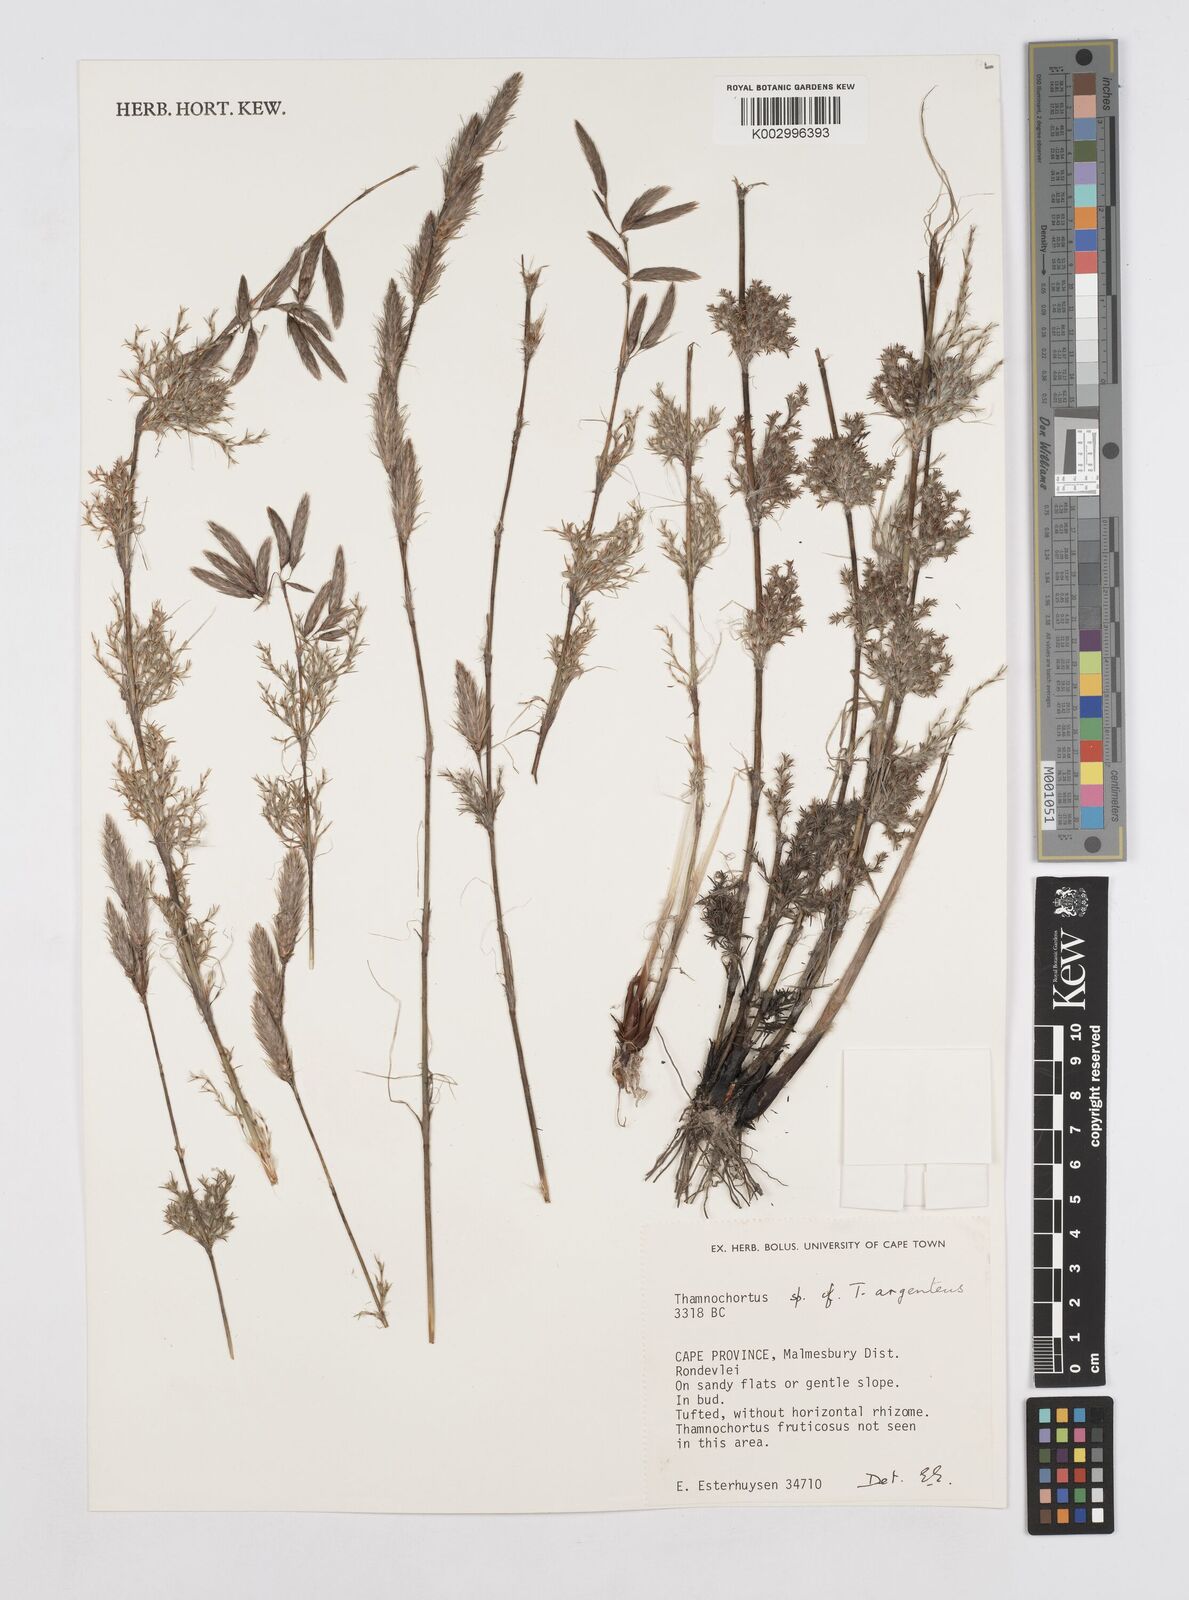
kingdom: Plantae
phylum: Tracheophyta
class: Liliopsida
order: Poales
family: Restionaceae
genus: Hypodiscus
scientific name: Hypodiscus argenteus
